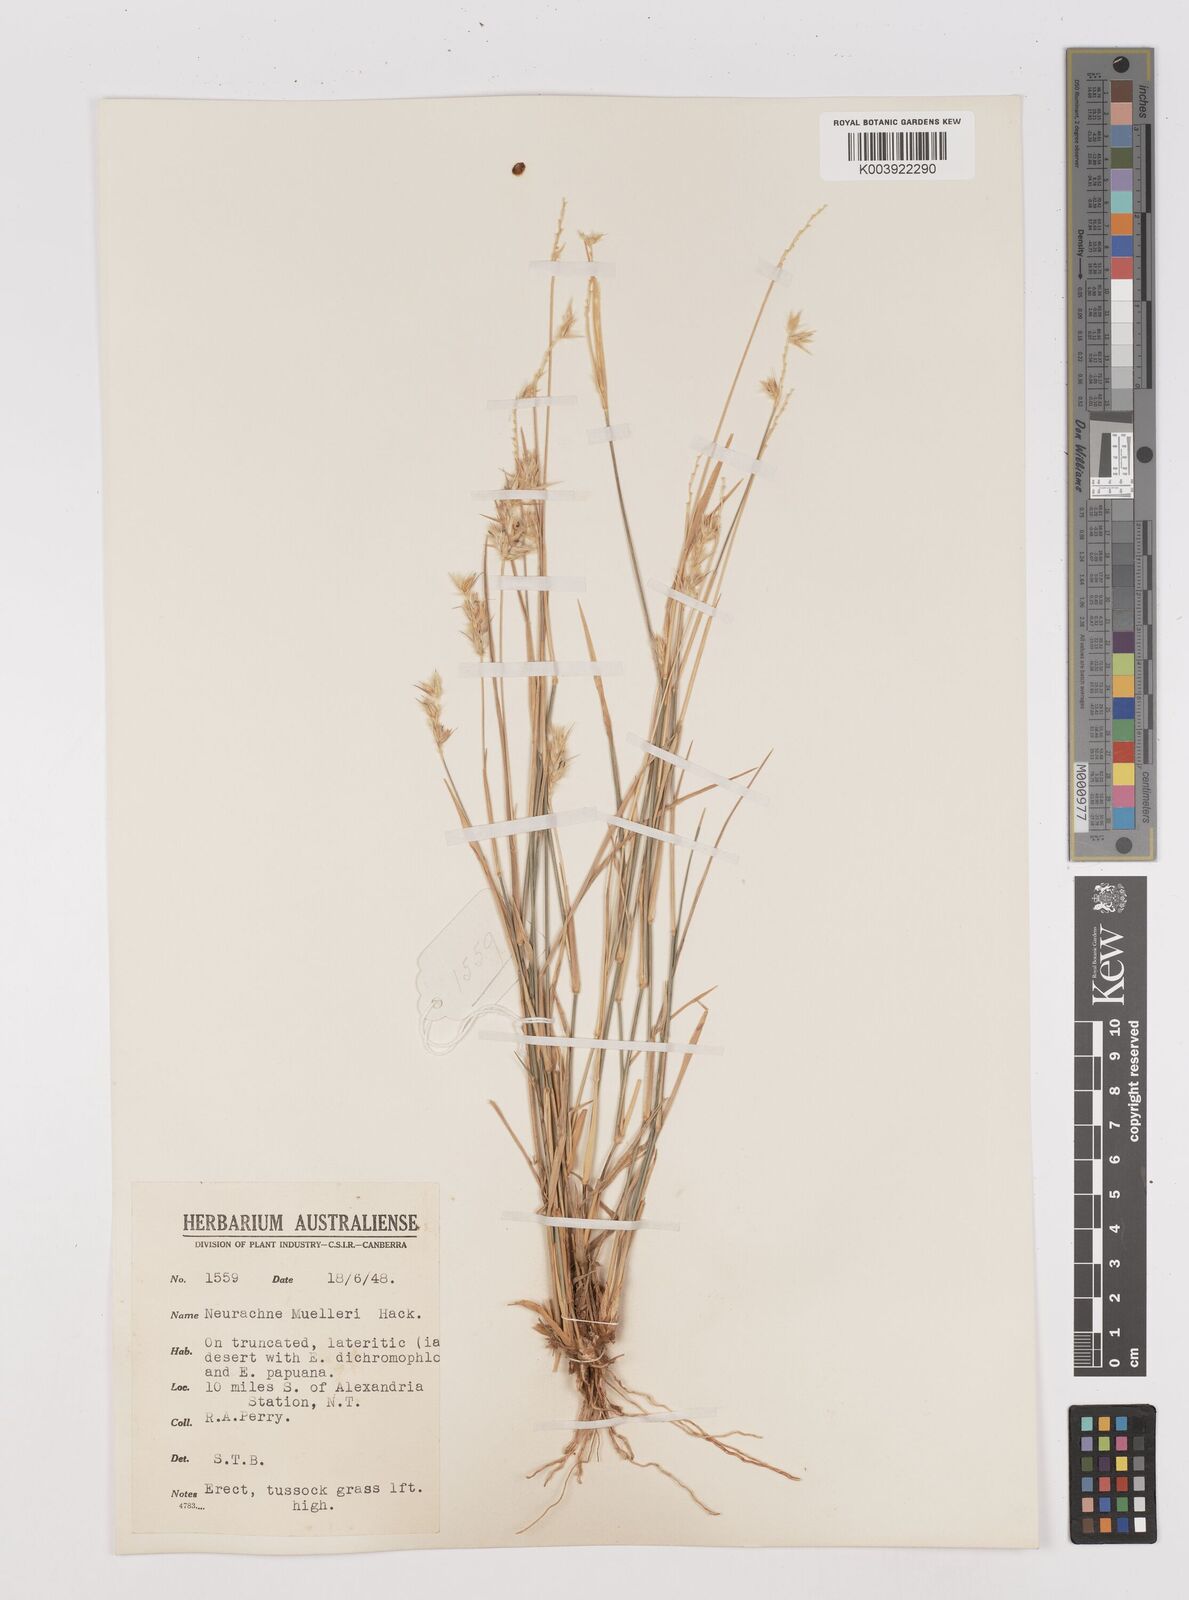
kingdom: Plantae
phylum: Tracheophyta
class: Liliopsida
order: Poales
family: Poaceae
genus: Neurachne
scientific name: Neurachne muelleri
